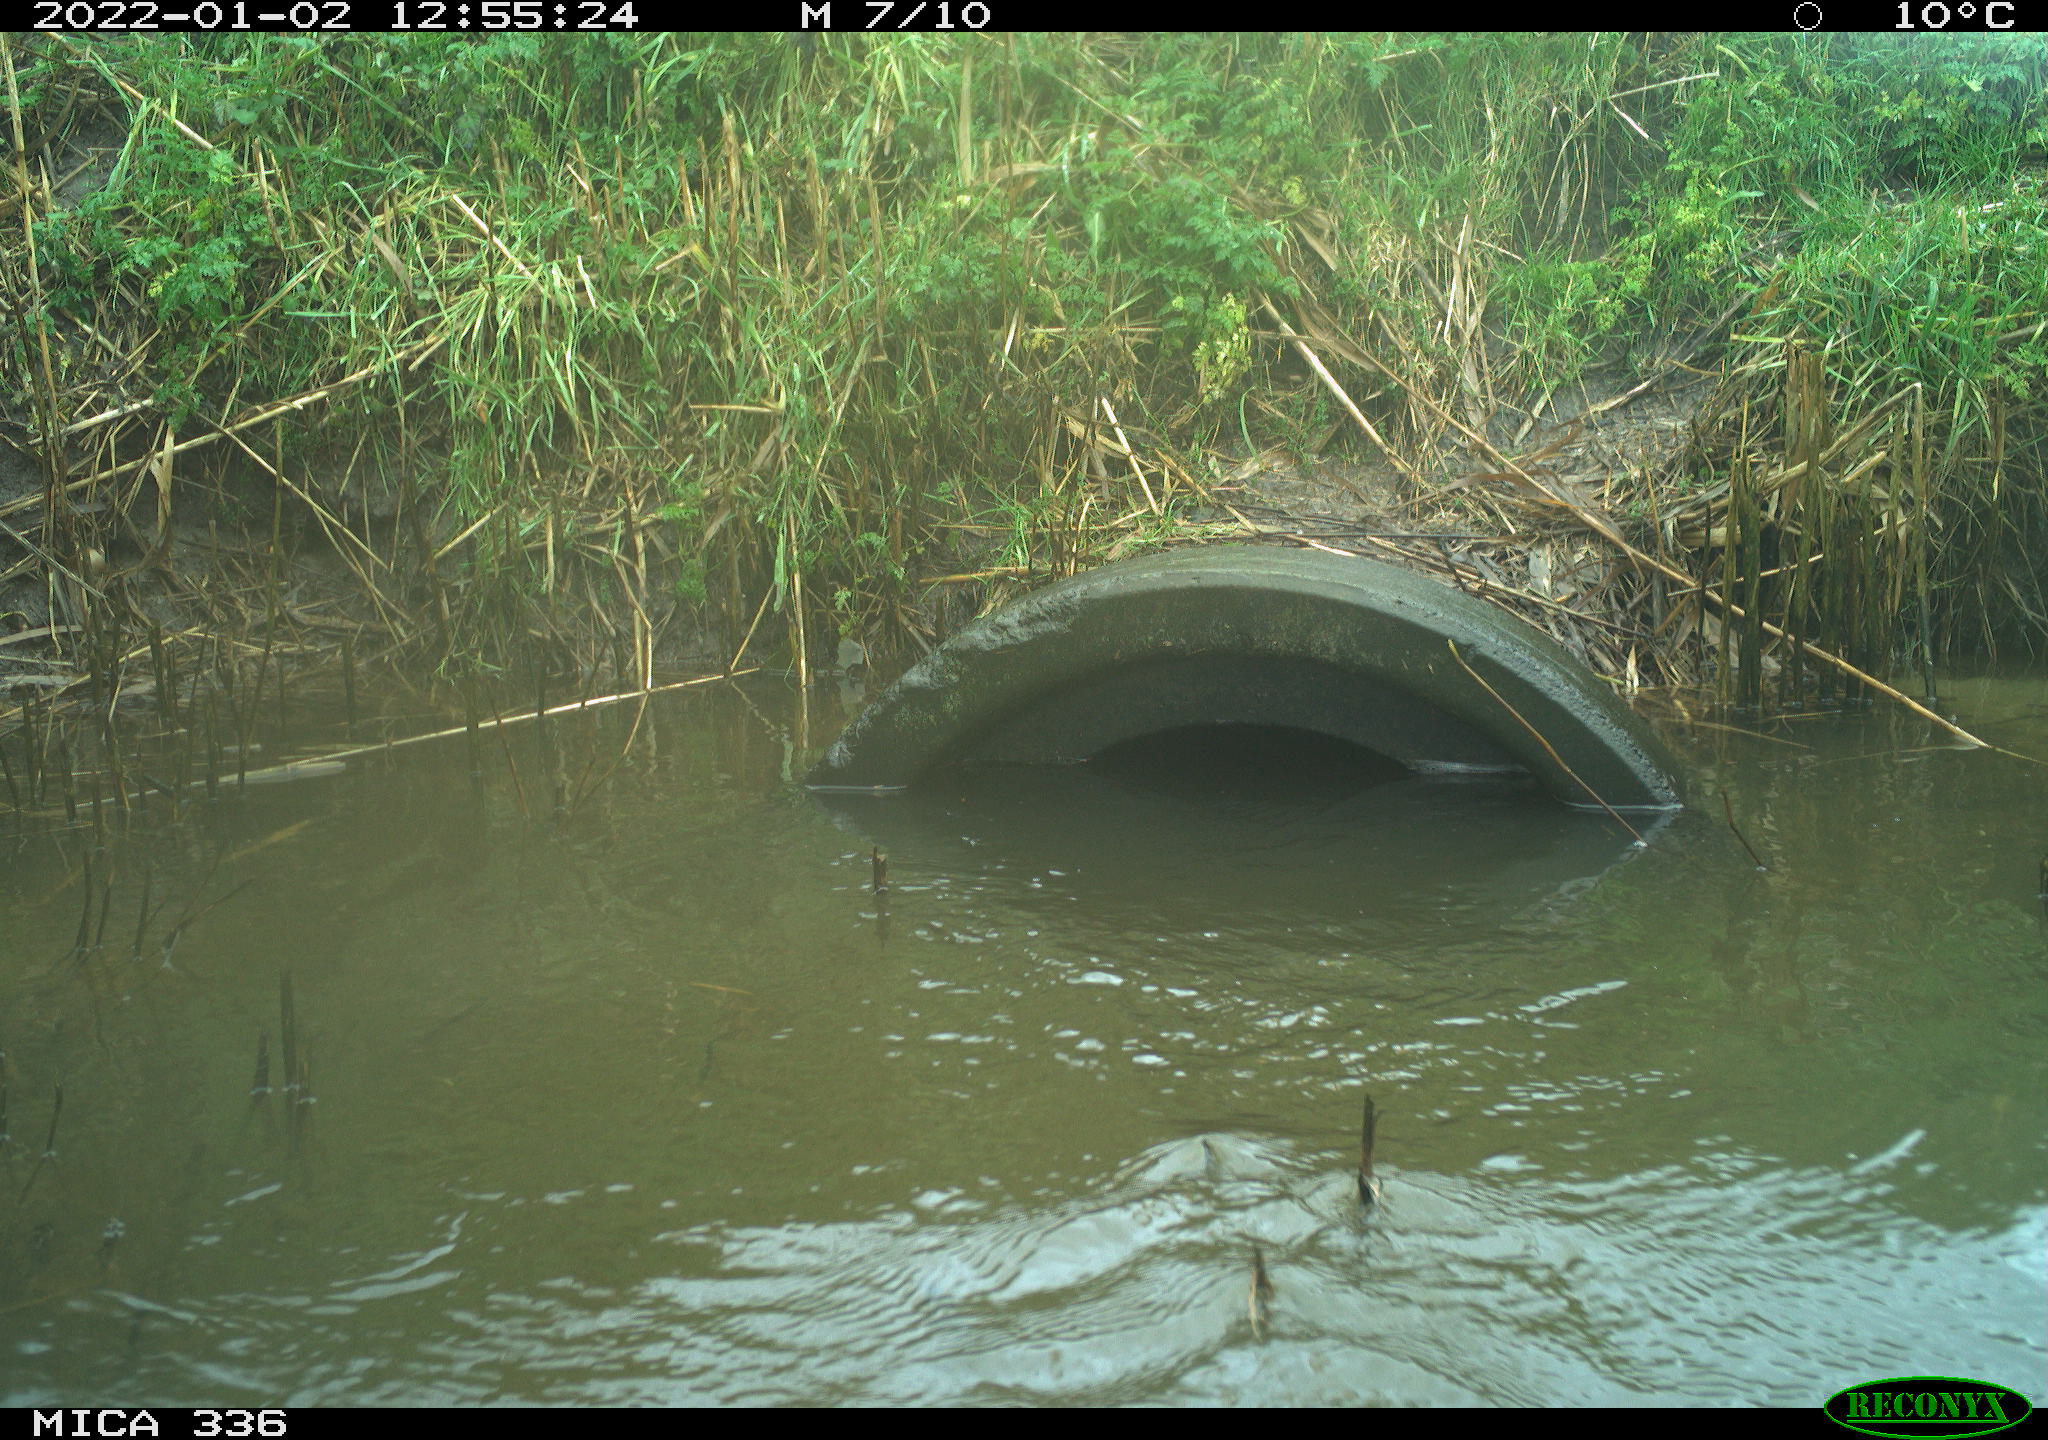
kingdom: Animalia
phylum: Chordata
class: Aves
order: Suliformes
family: Phalacrocoracidae
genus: Phalacrocorax
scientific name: Phalacrocorax carbo
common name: Great cormorant
